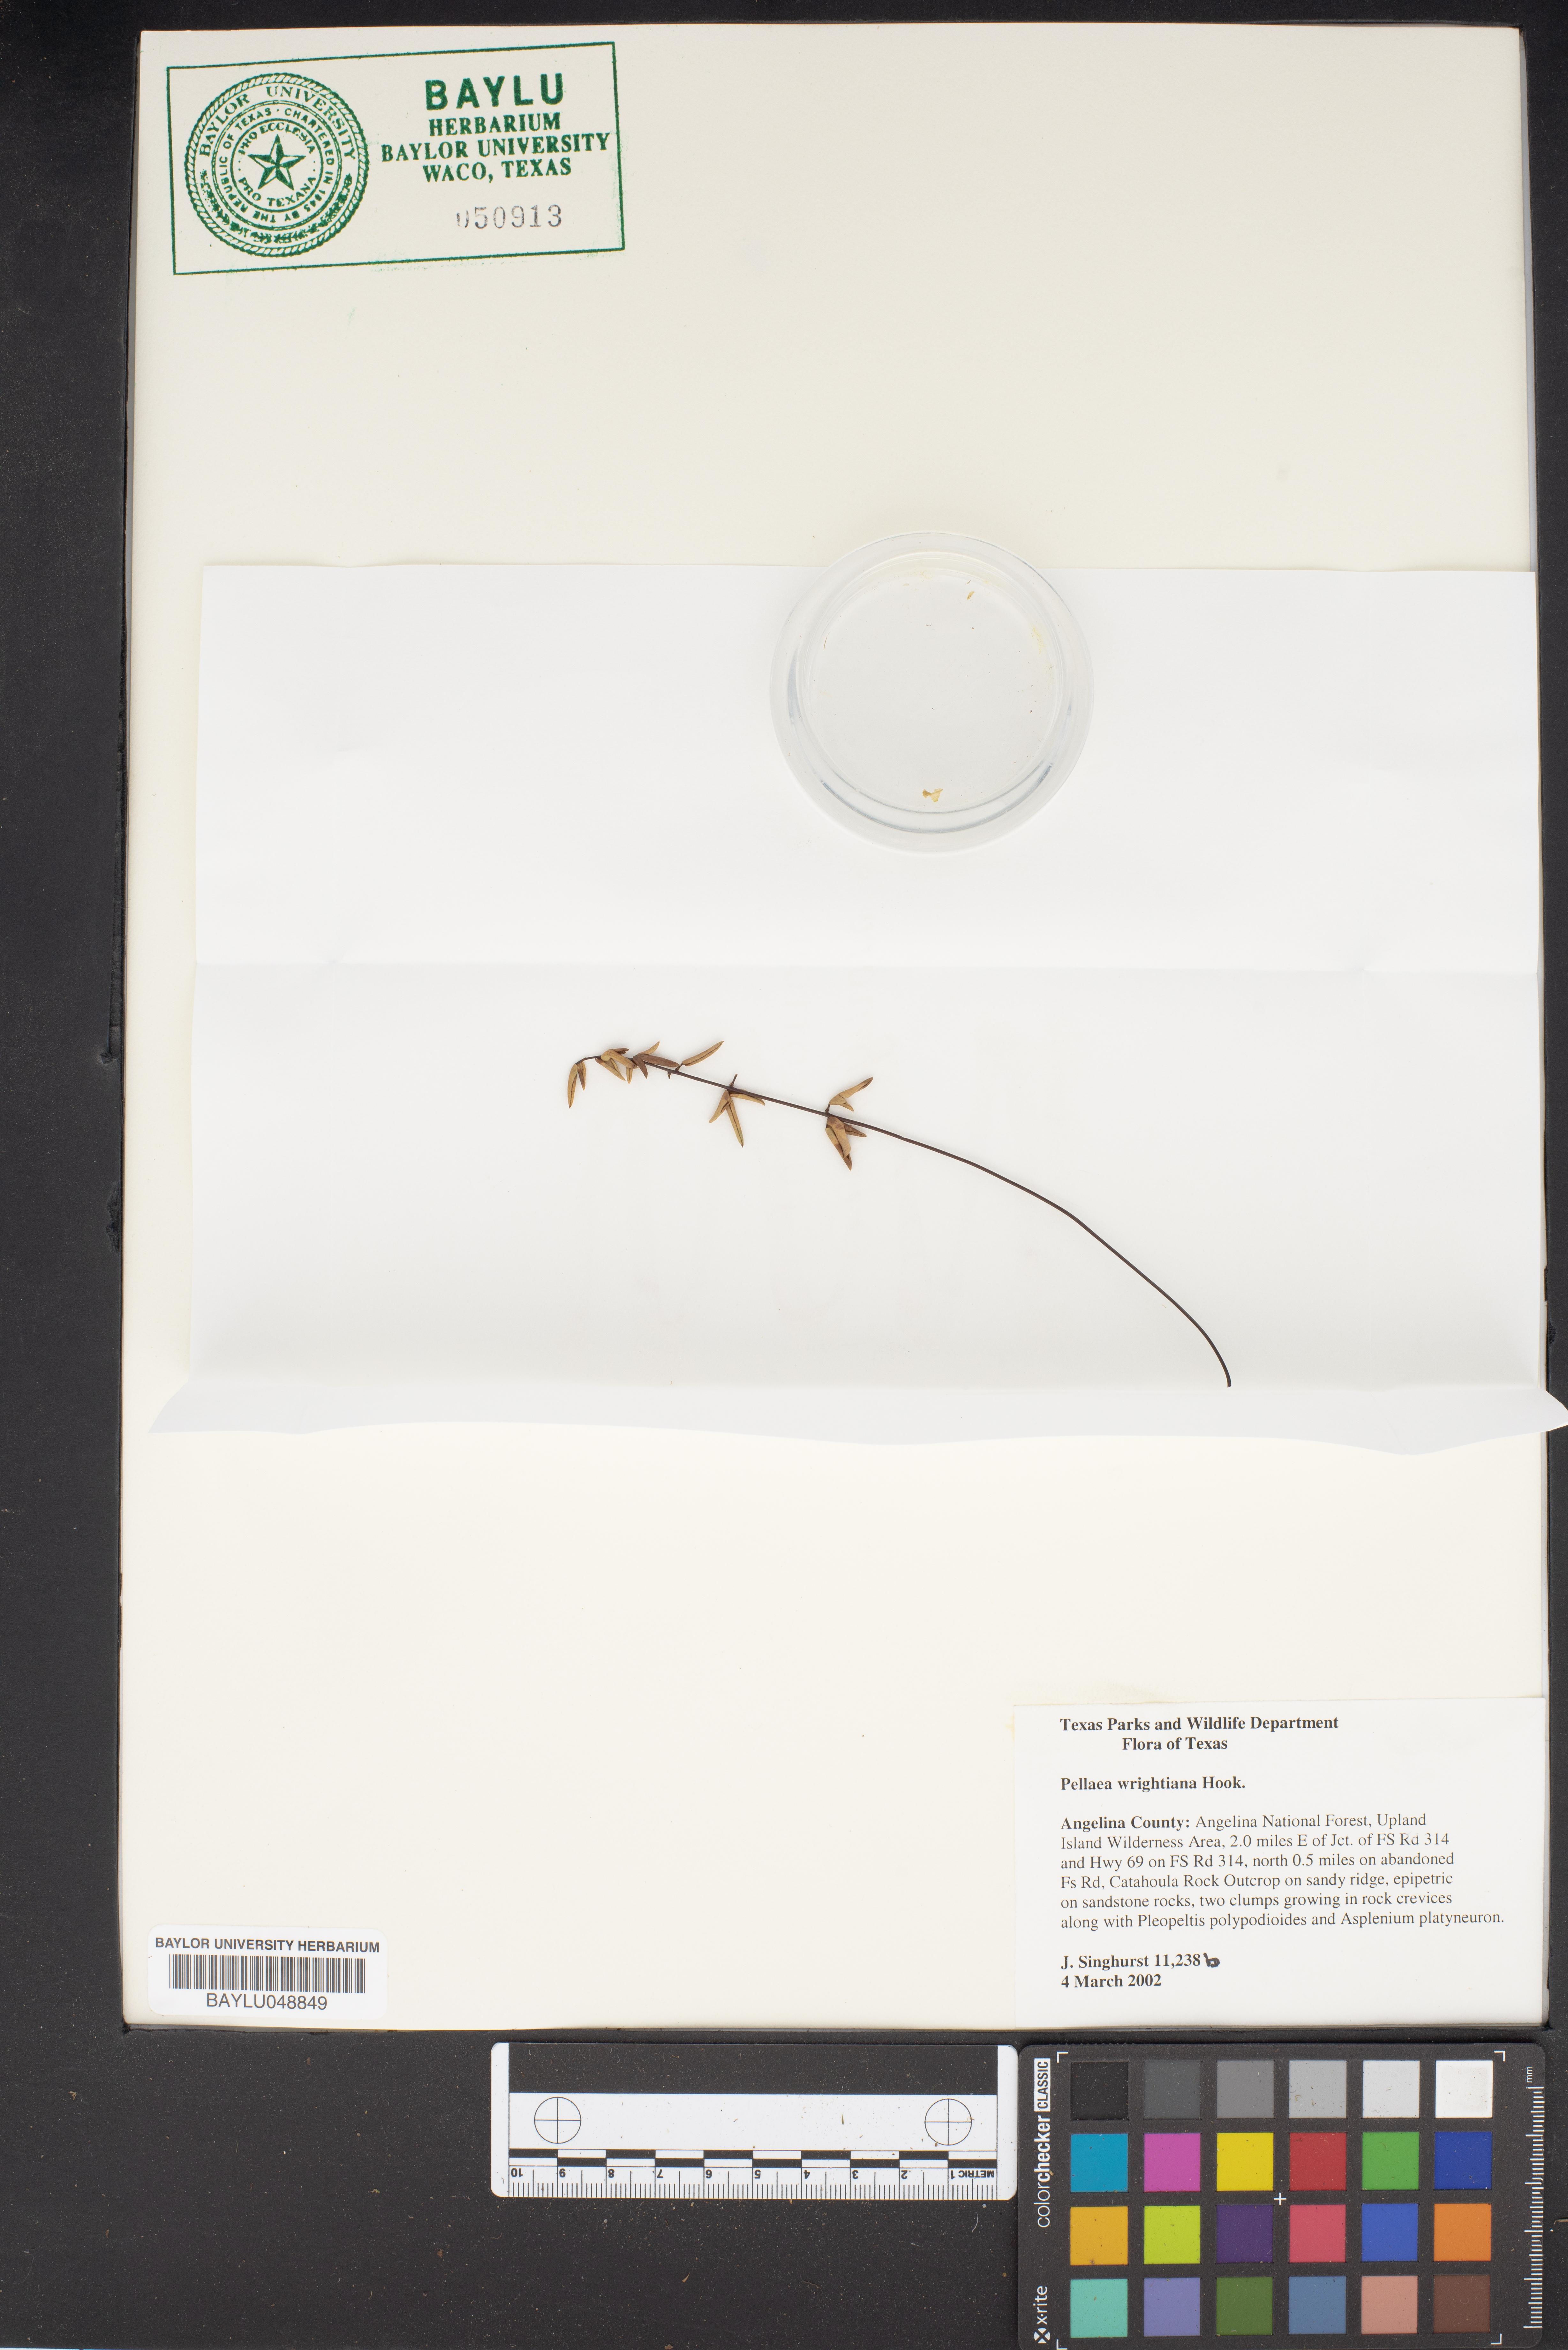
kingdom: Plantae
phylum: Tracheophyta
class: Polypodiopsida
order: Polypodiales
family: Pteridaceae
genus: Pellaea
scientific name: Pellaea wrightiana
